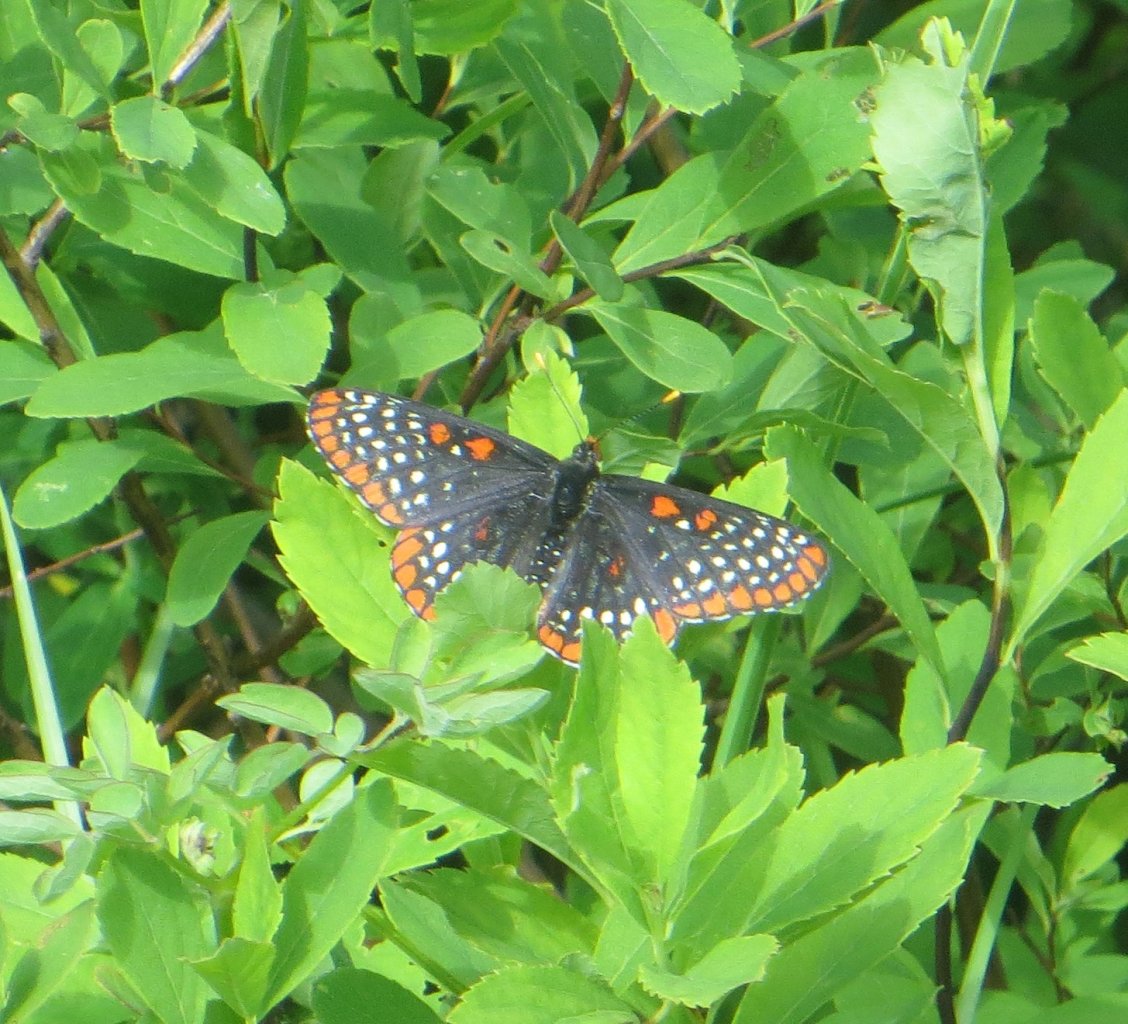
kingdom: Animalia
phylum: Arthropoda
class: Insecta
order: Lepidoptera
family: Nymphalidae
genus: Euphydryas
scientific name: Euphydryas phaeton
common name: Baltimore Checkerspot
